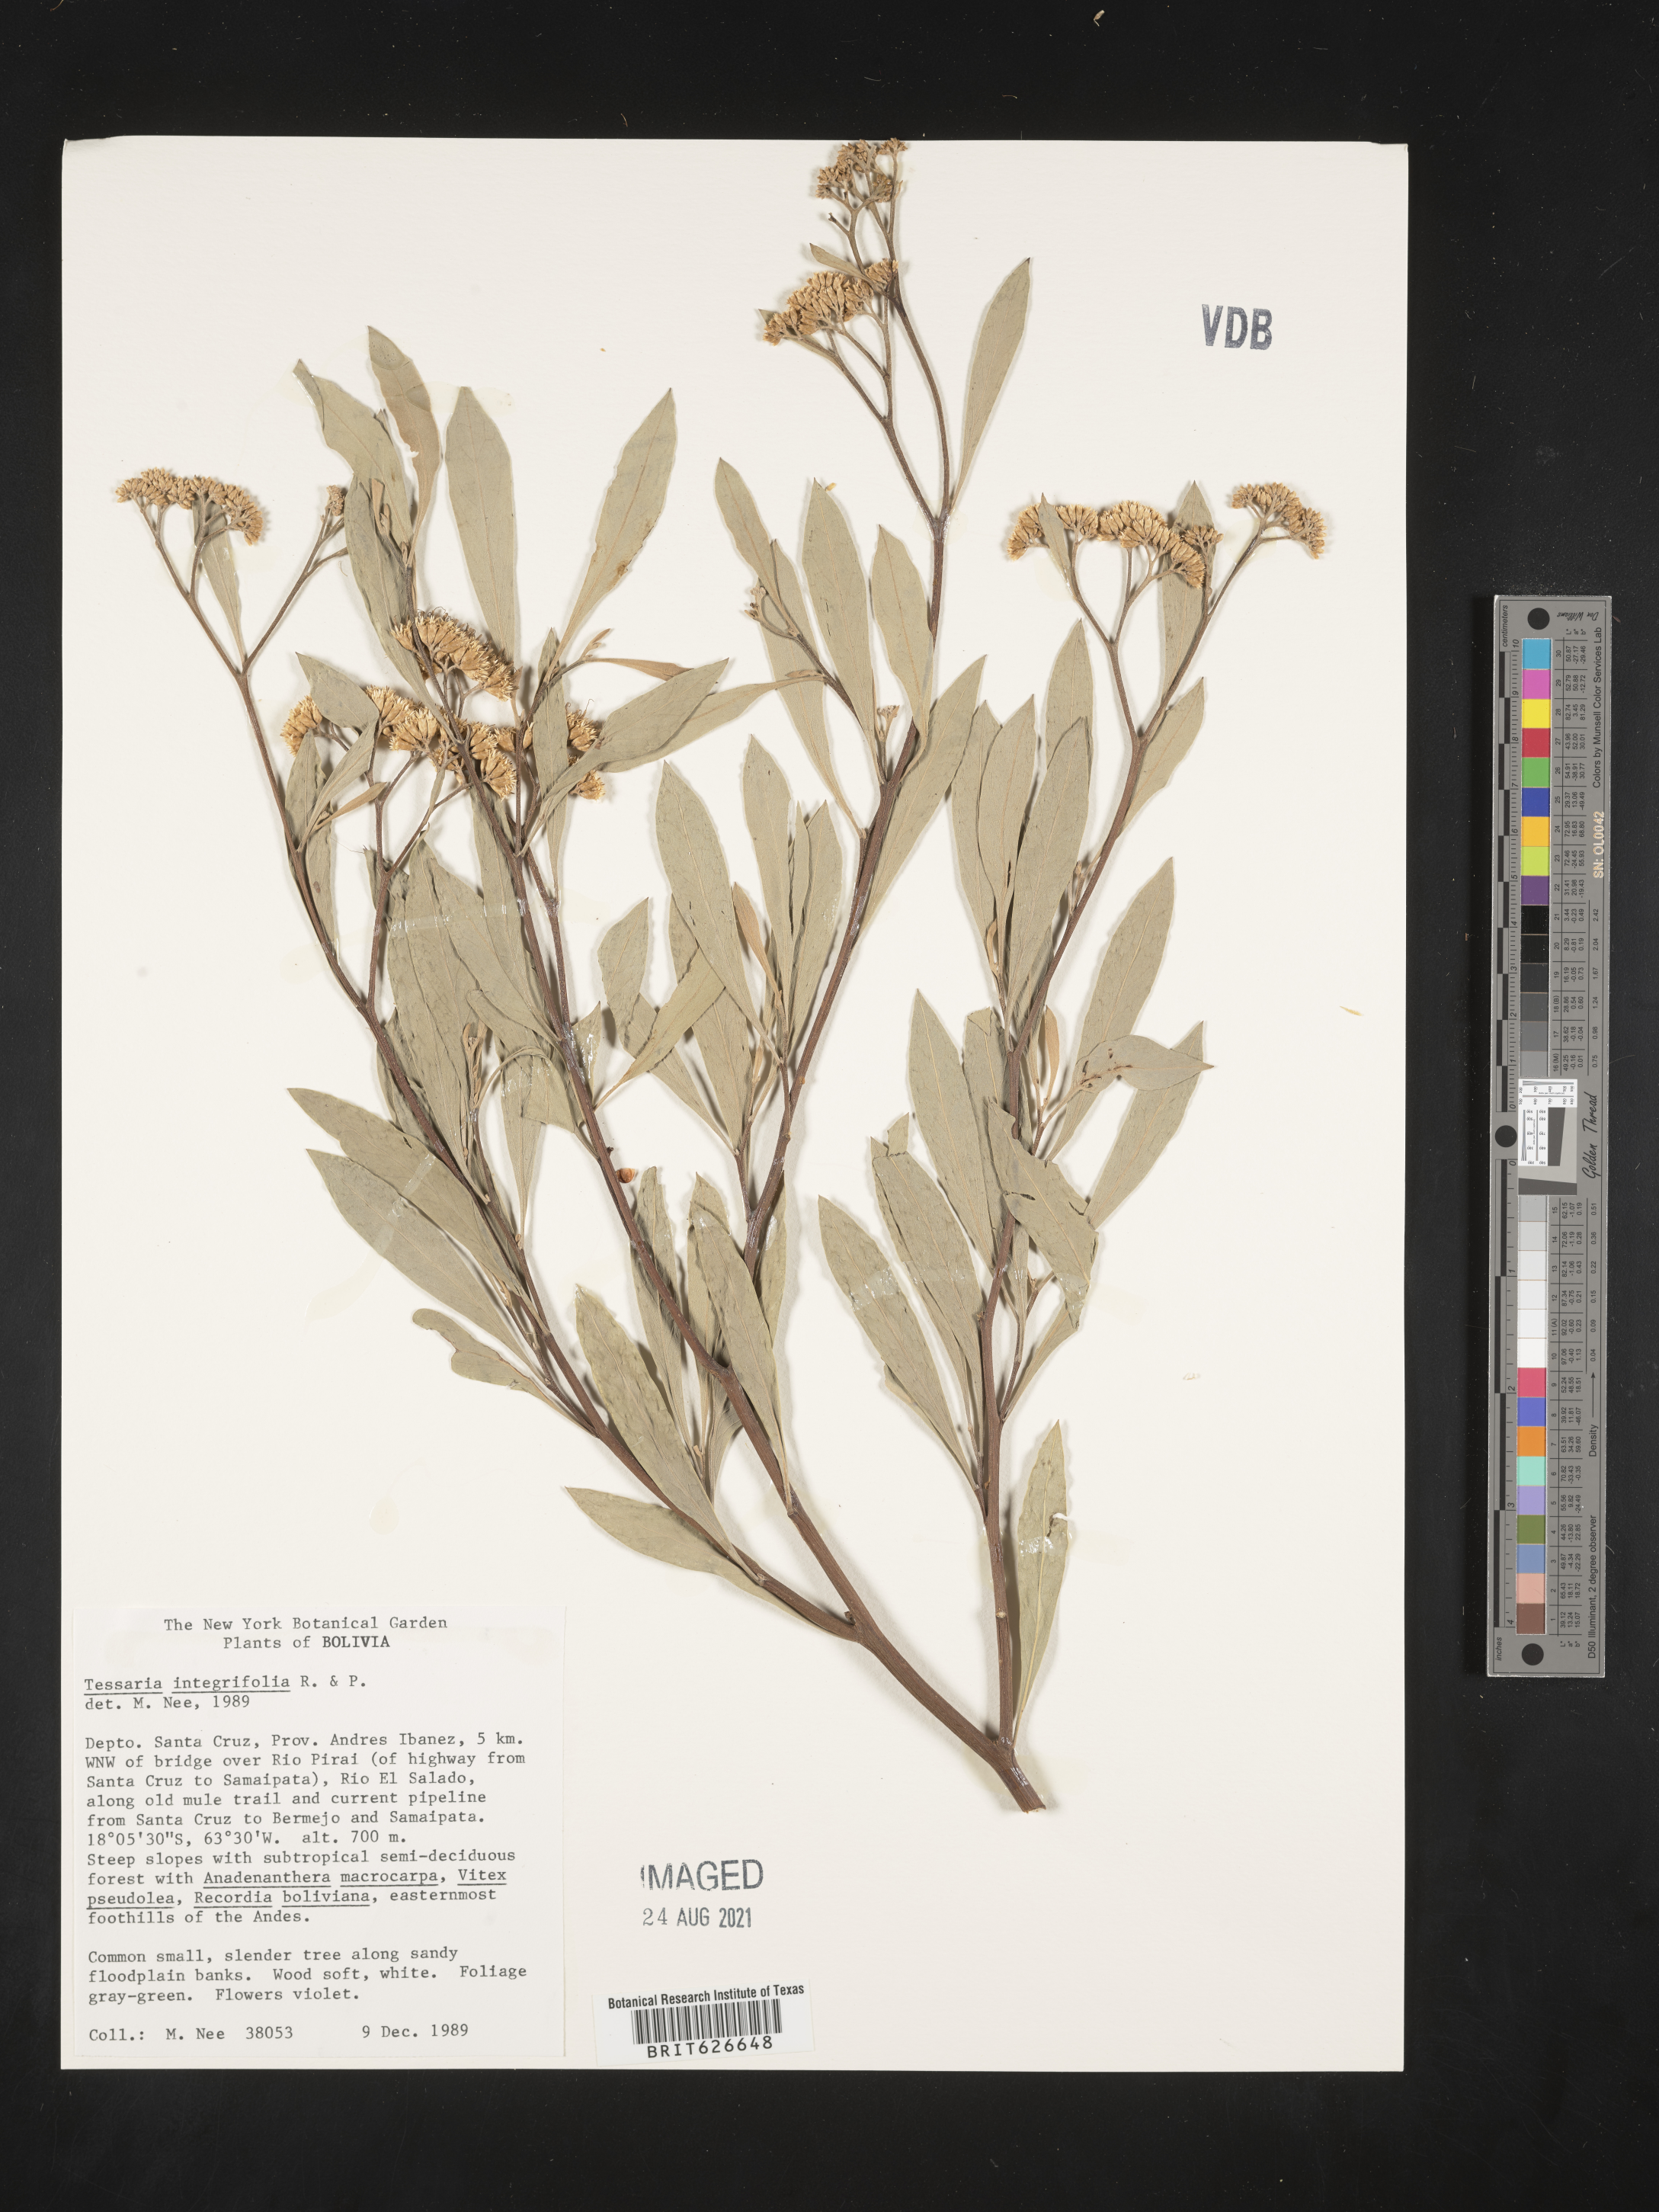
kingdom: Plantae
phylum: Tracheophyta
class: Magnoliopsida
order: Asterales
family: Asteraceae
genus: Tessaria
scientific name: Tessaria integrifolia
